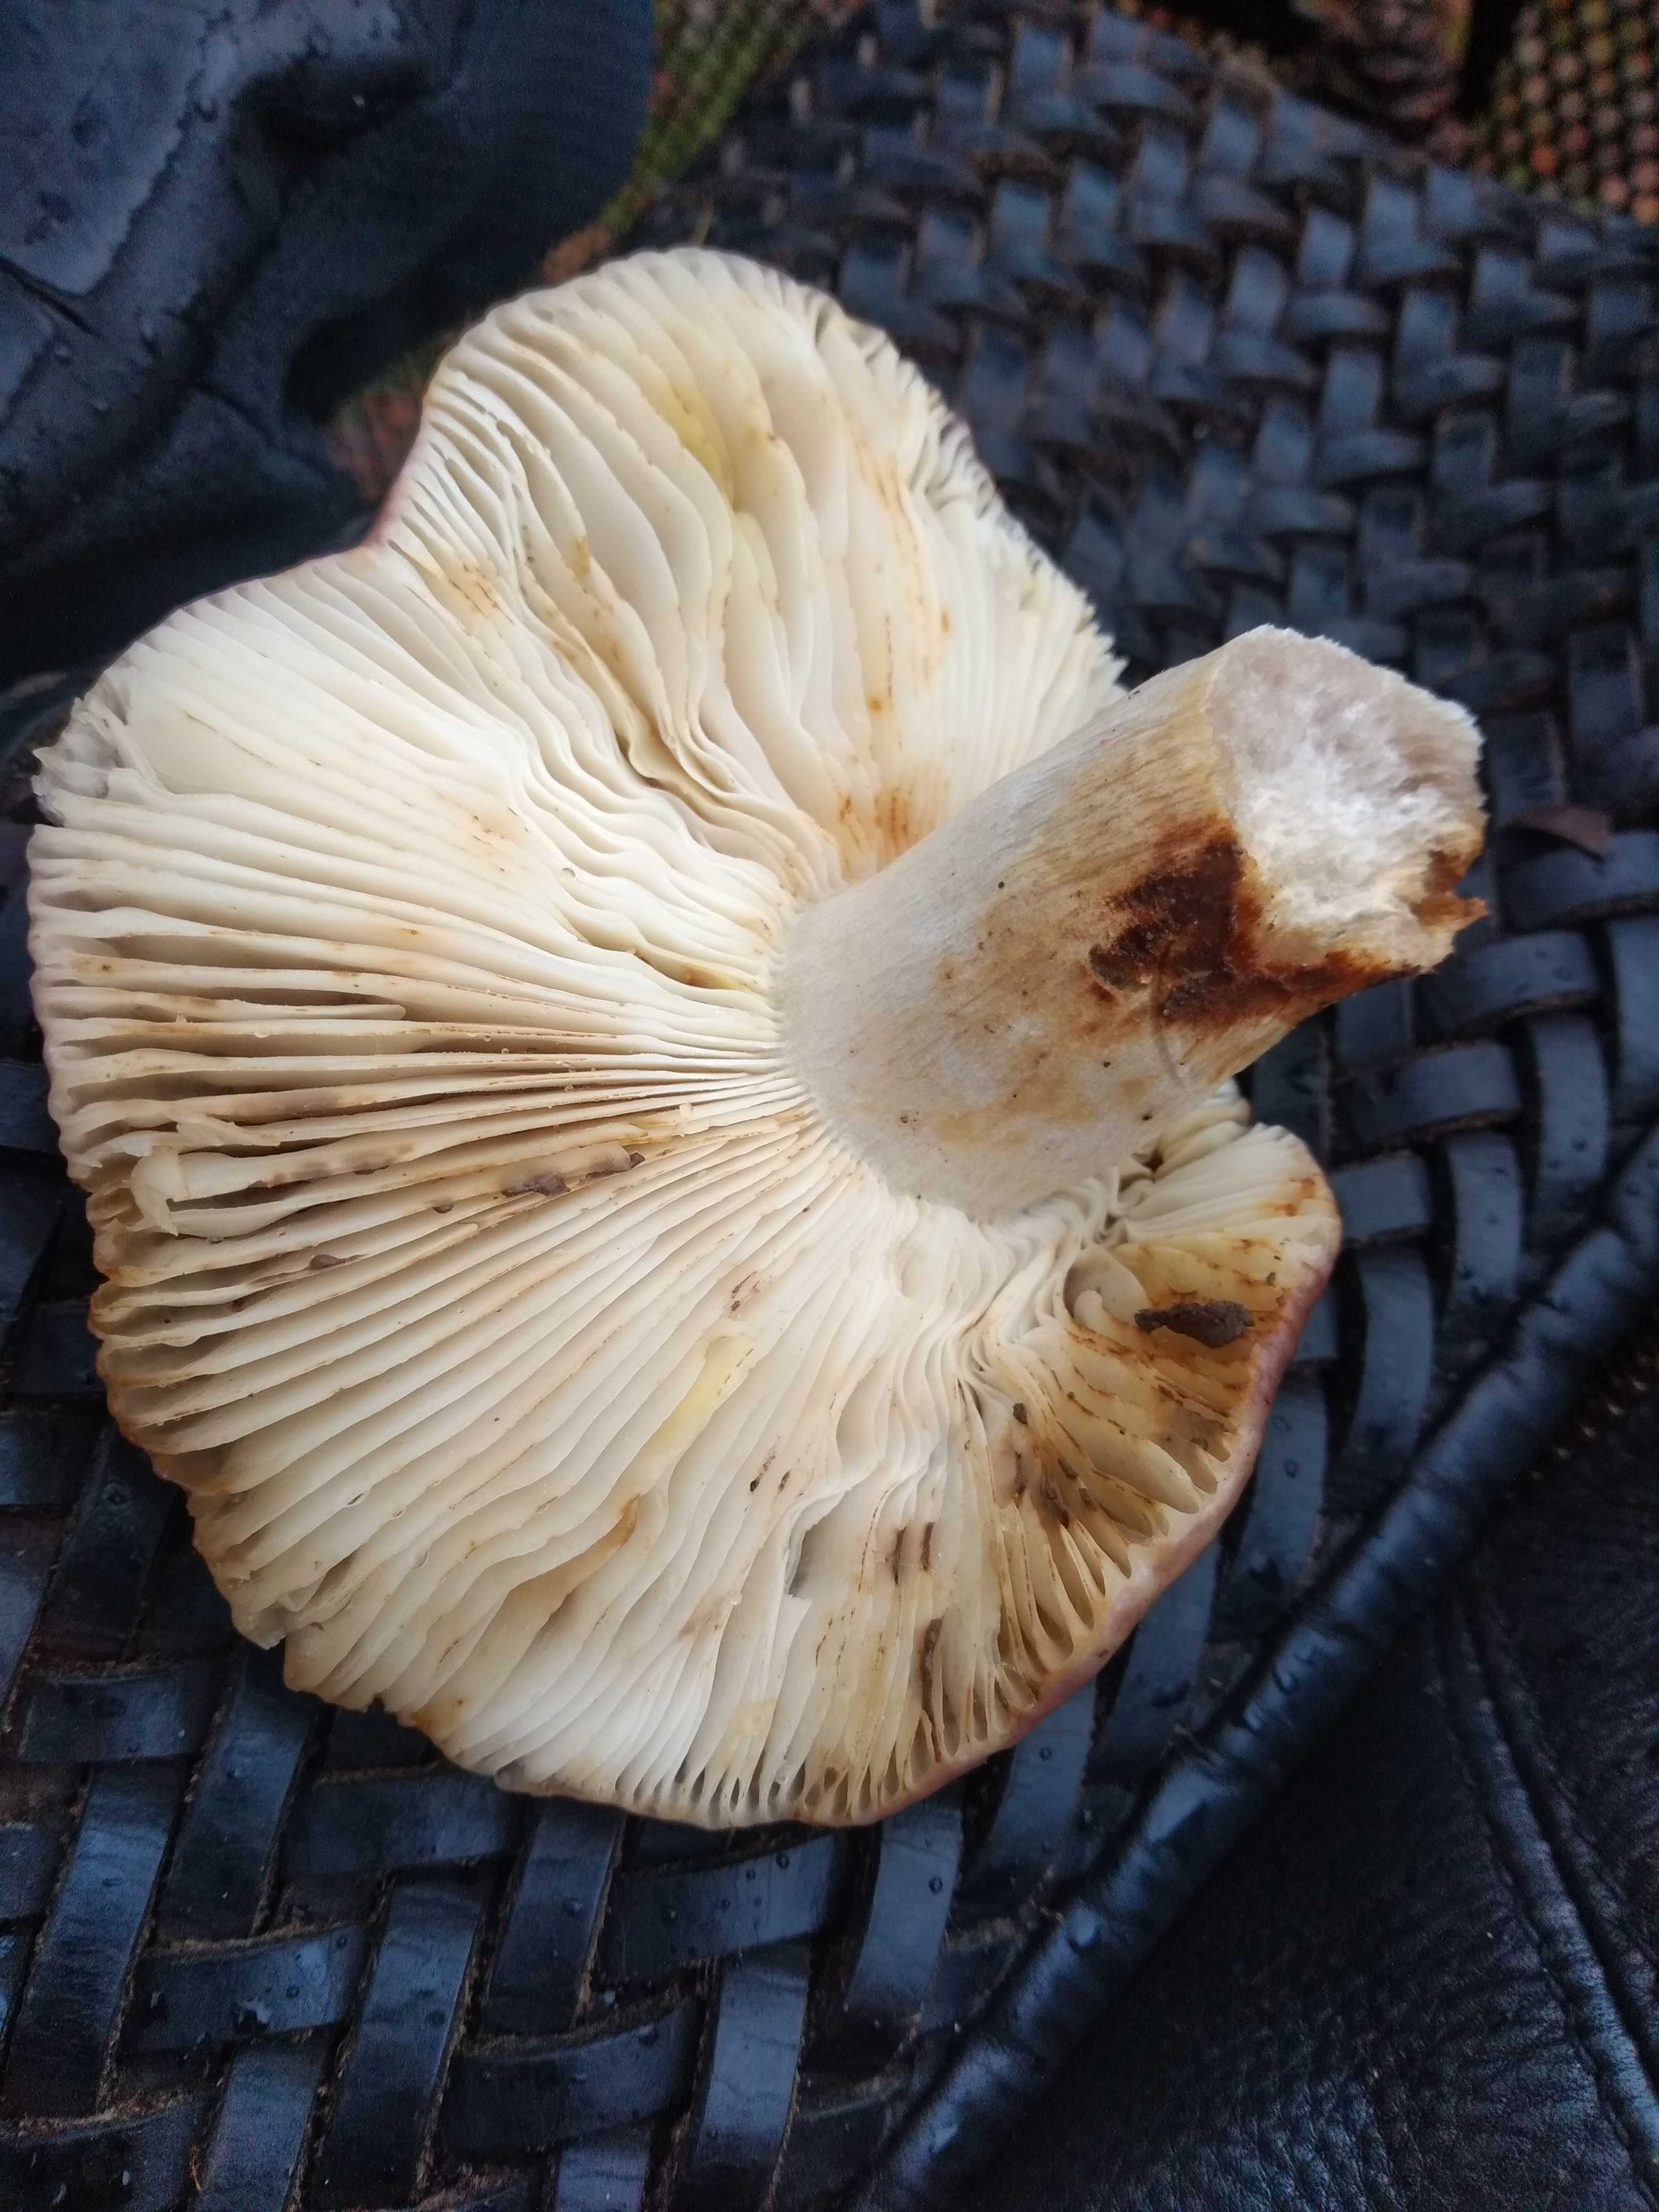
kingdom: Fungi
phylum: Basidiomycota
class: Agaricomycetes
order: Russulales
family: Russulaceae
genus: Russula
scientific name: Russula
